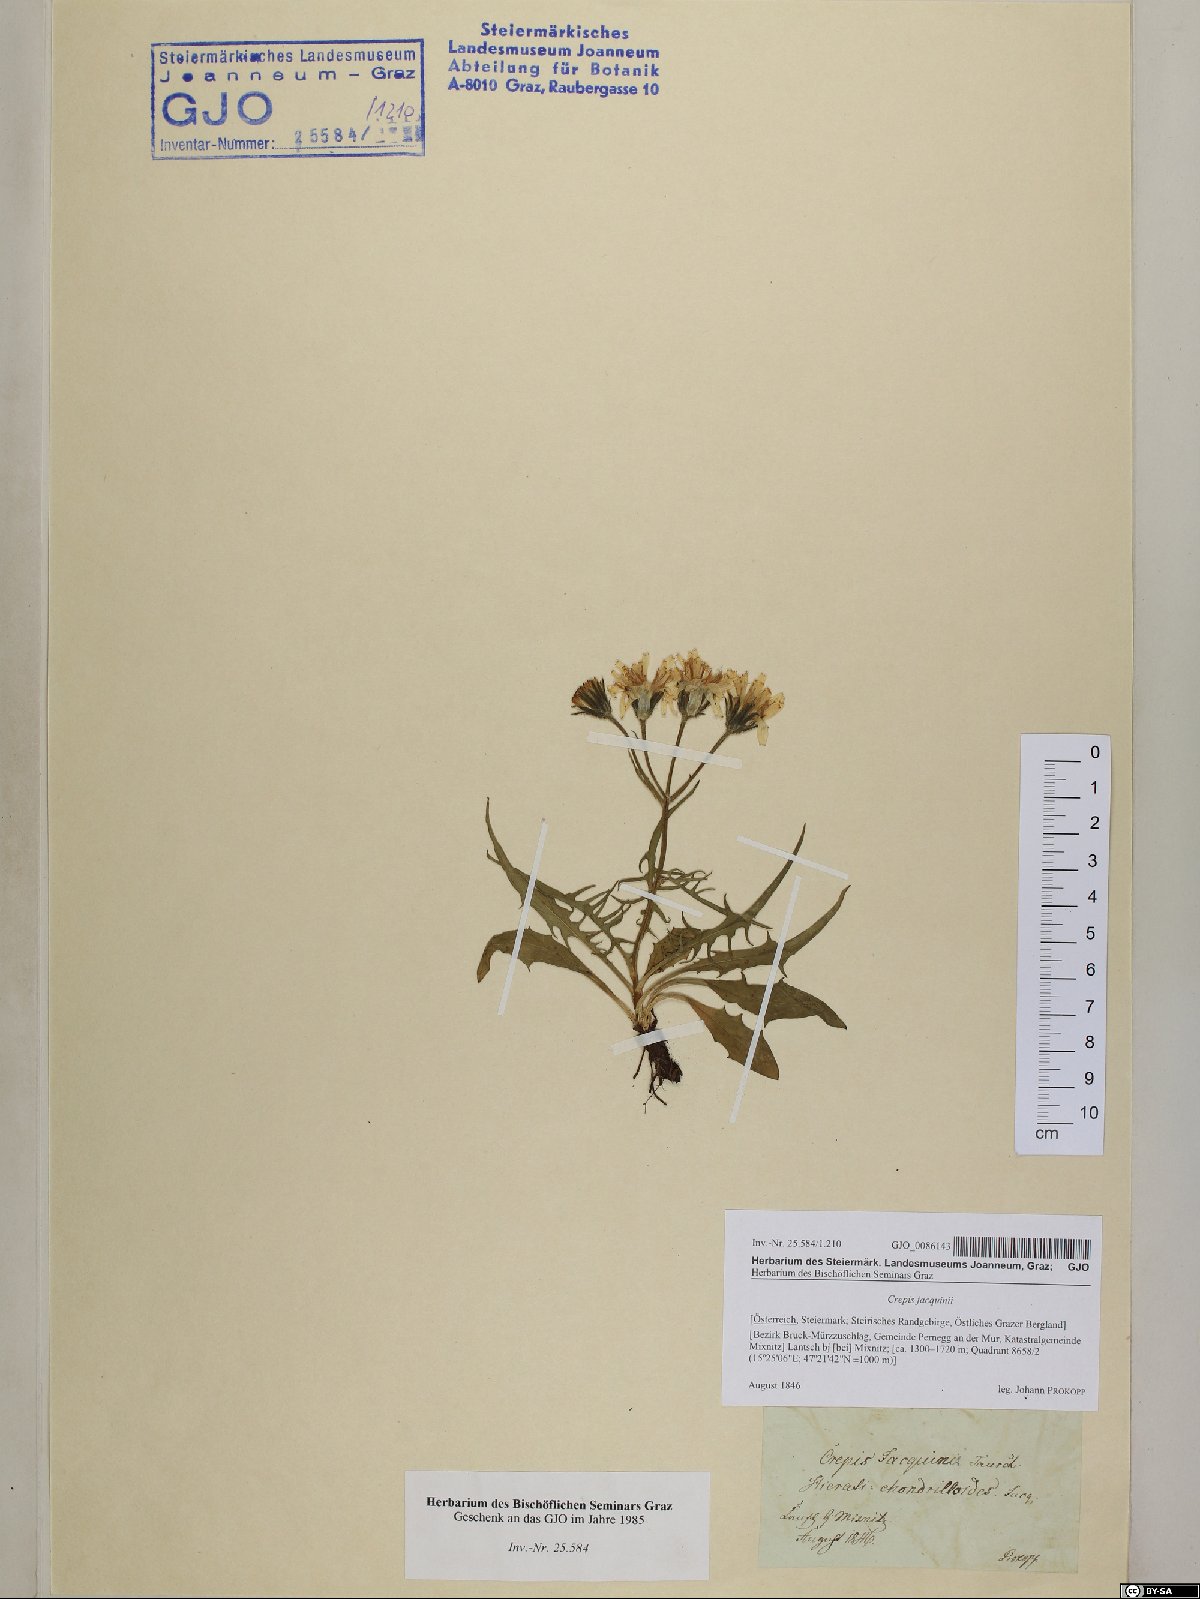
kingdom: Plantae
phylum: Tracheophyta
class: Magnoliopsida
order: Asterales
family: Asteraceae
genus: Crepis
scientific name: Crepis jacquinii
